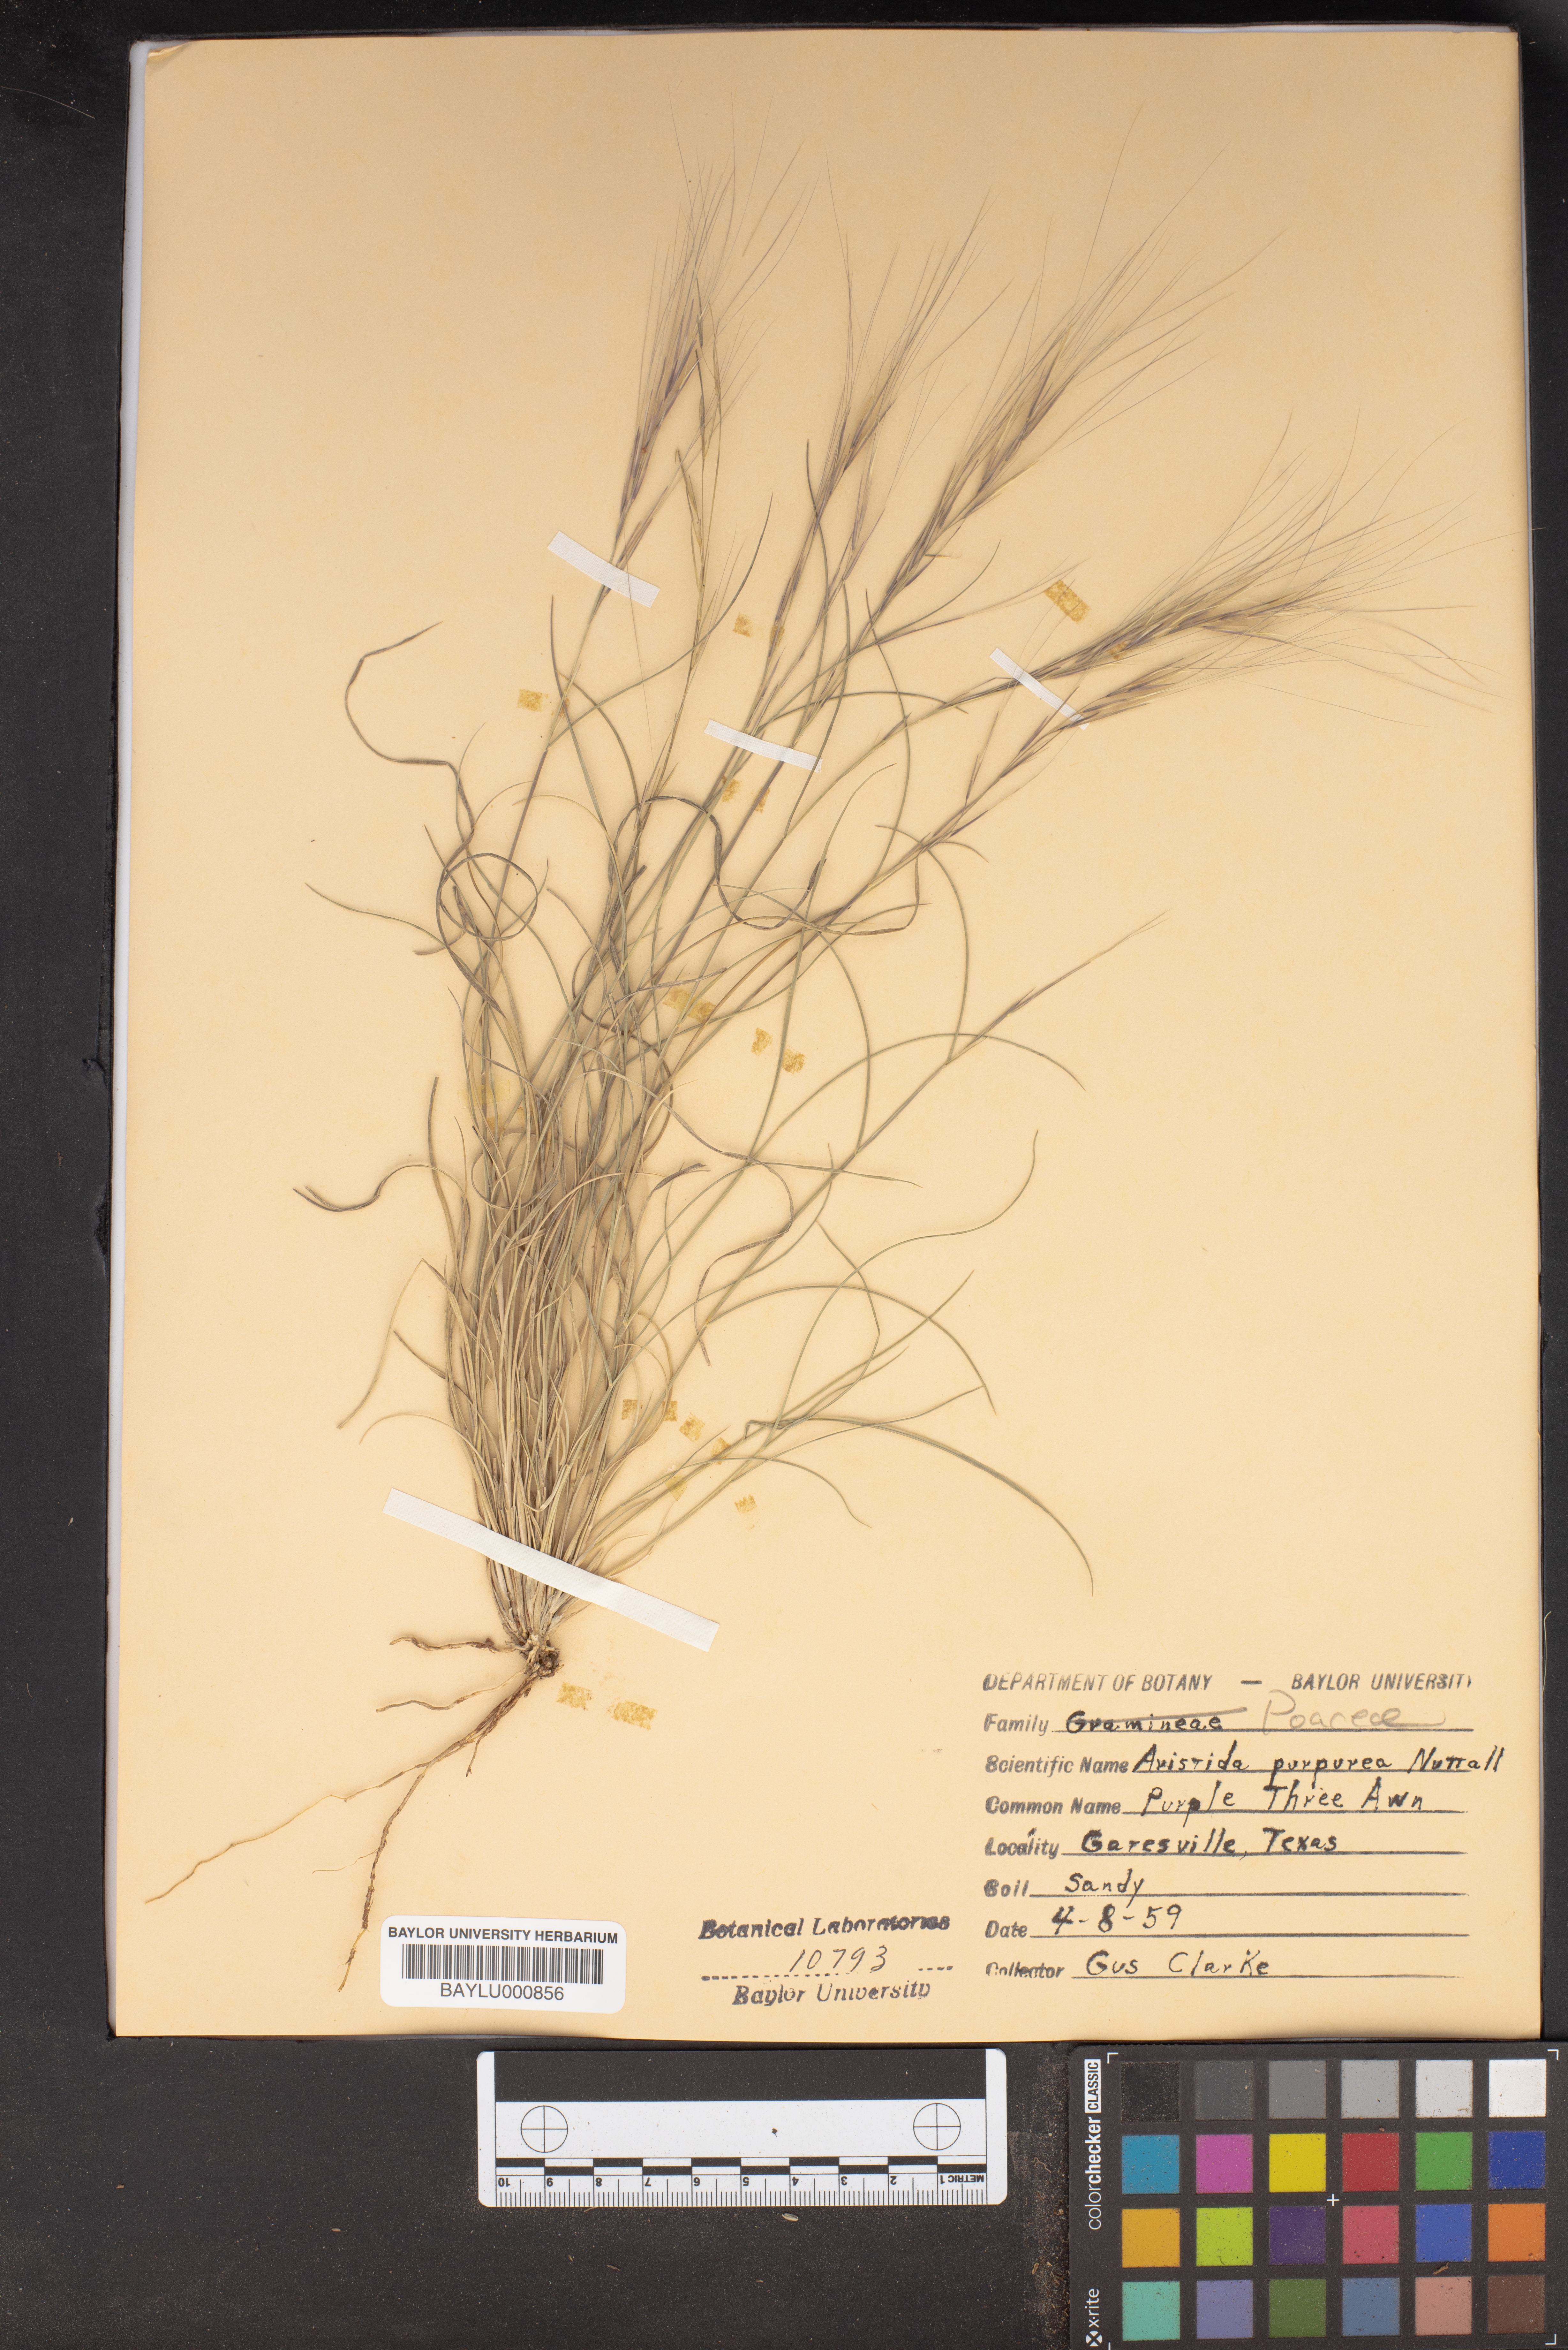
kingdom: Plantae
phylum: Tracheophyta
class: Liliopsida
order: Poales
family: Poaceae
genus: Aristida
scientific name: Aristida purpurea
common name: Purple threeawn
